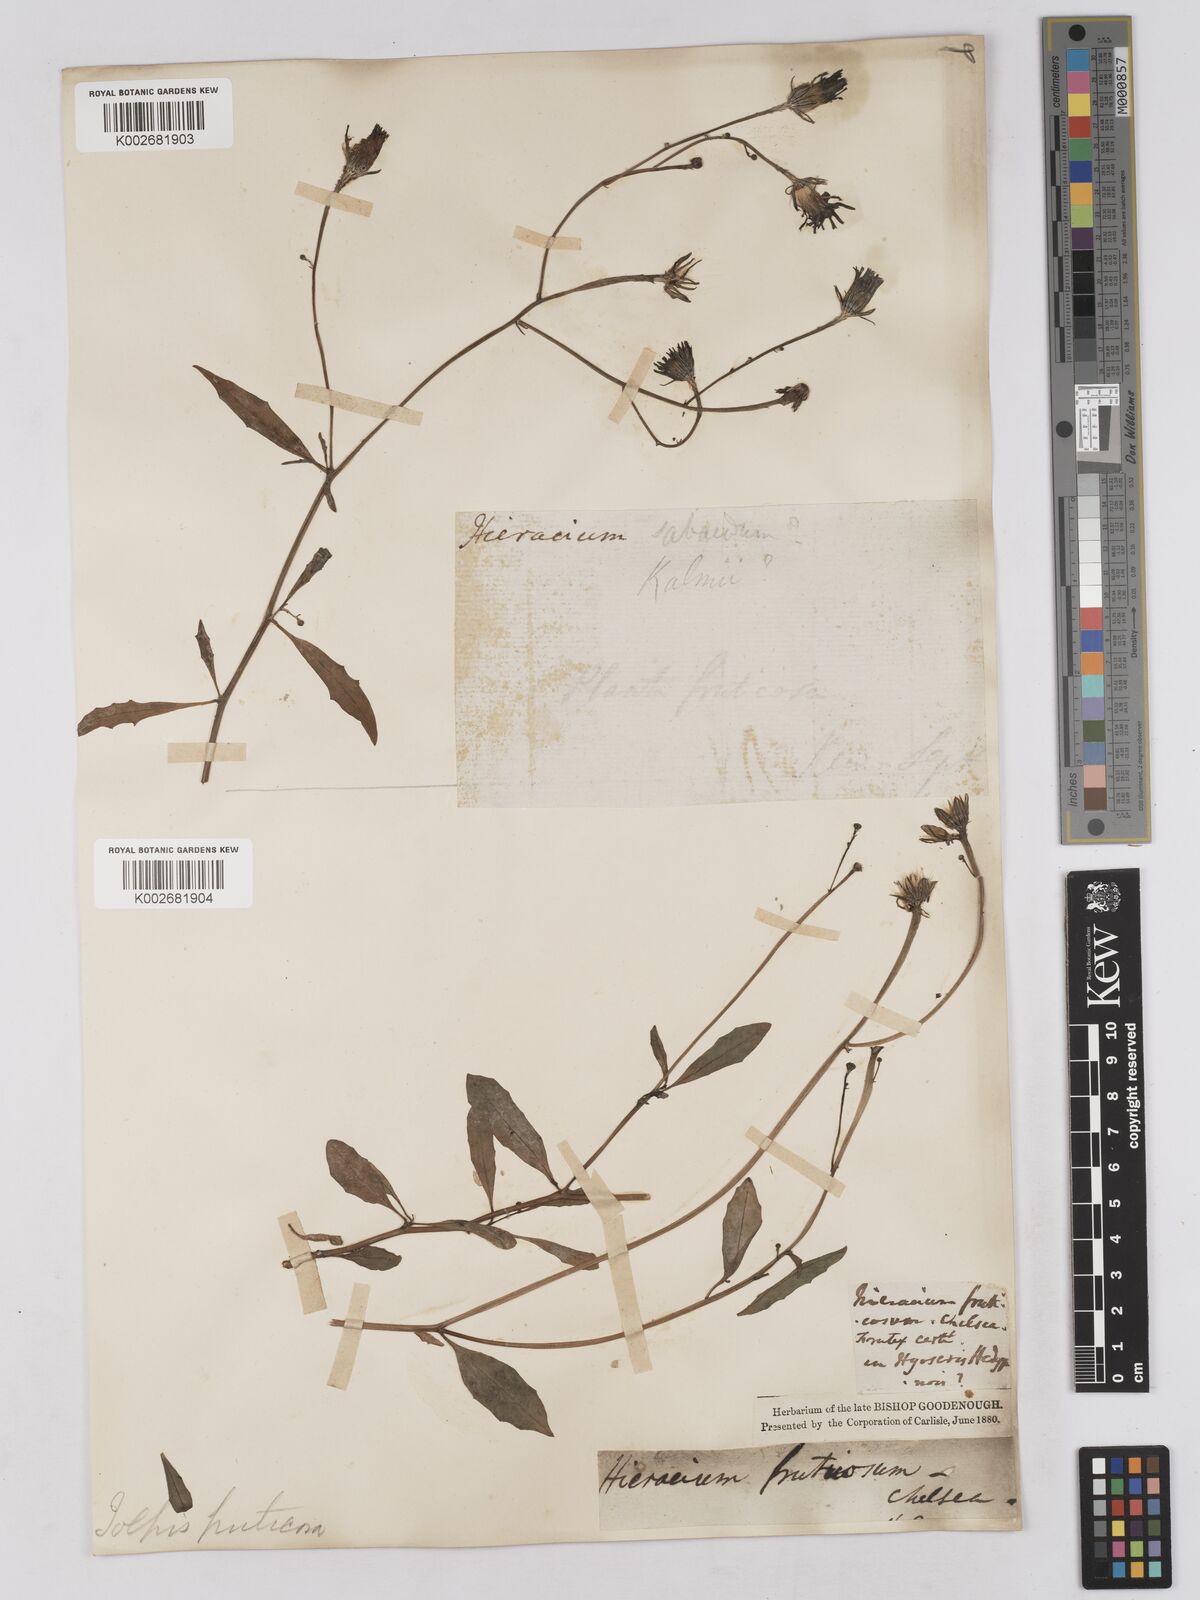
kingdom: Plantae
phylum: Tracheophyta
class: Magnoliopsida
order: Asterales
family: Asteraceae
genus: Tolpis
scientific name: Tolpis succulenta
